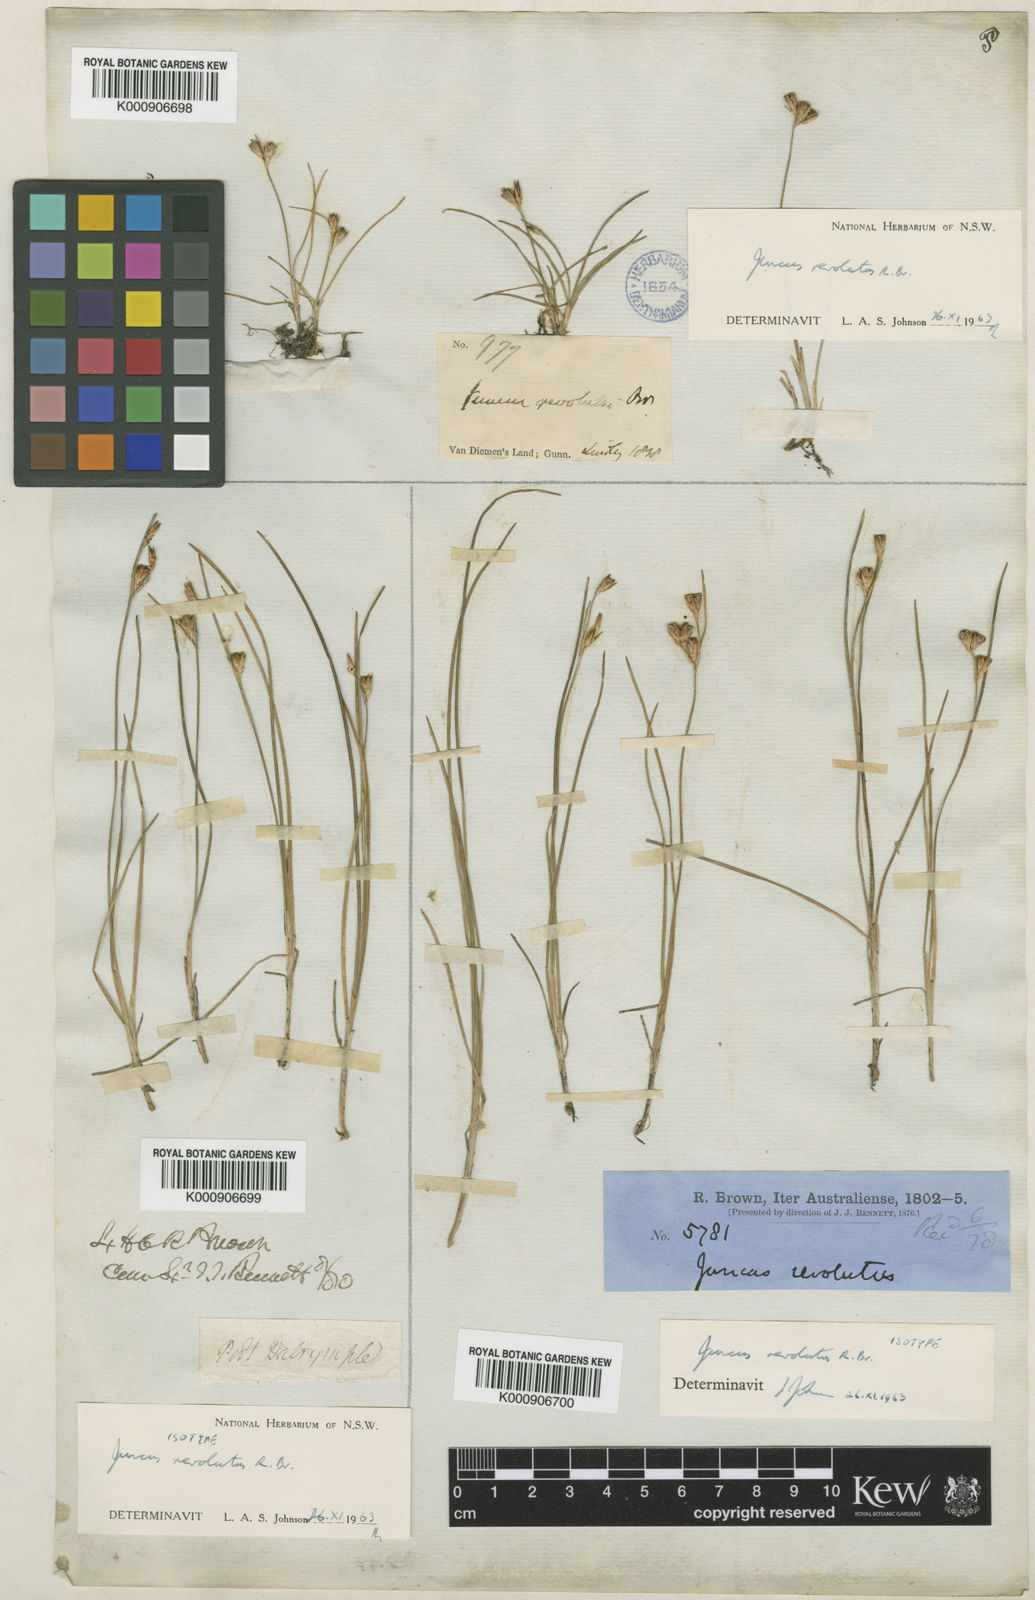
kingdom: Plantae
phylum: Tracheophyta
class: Liliopsida
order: Poales
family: Juncaceae
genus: Juncus
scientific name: Juncus revolutus
